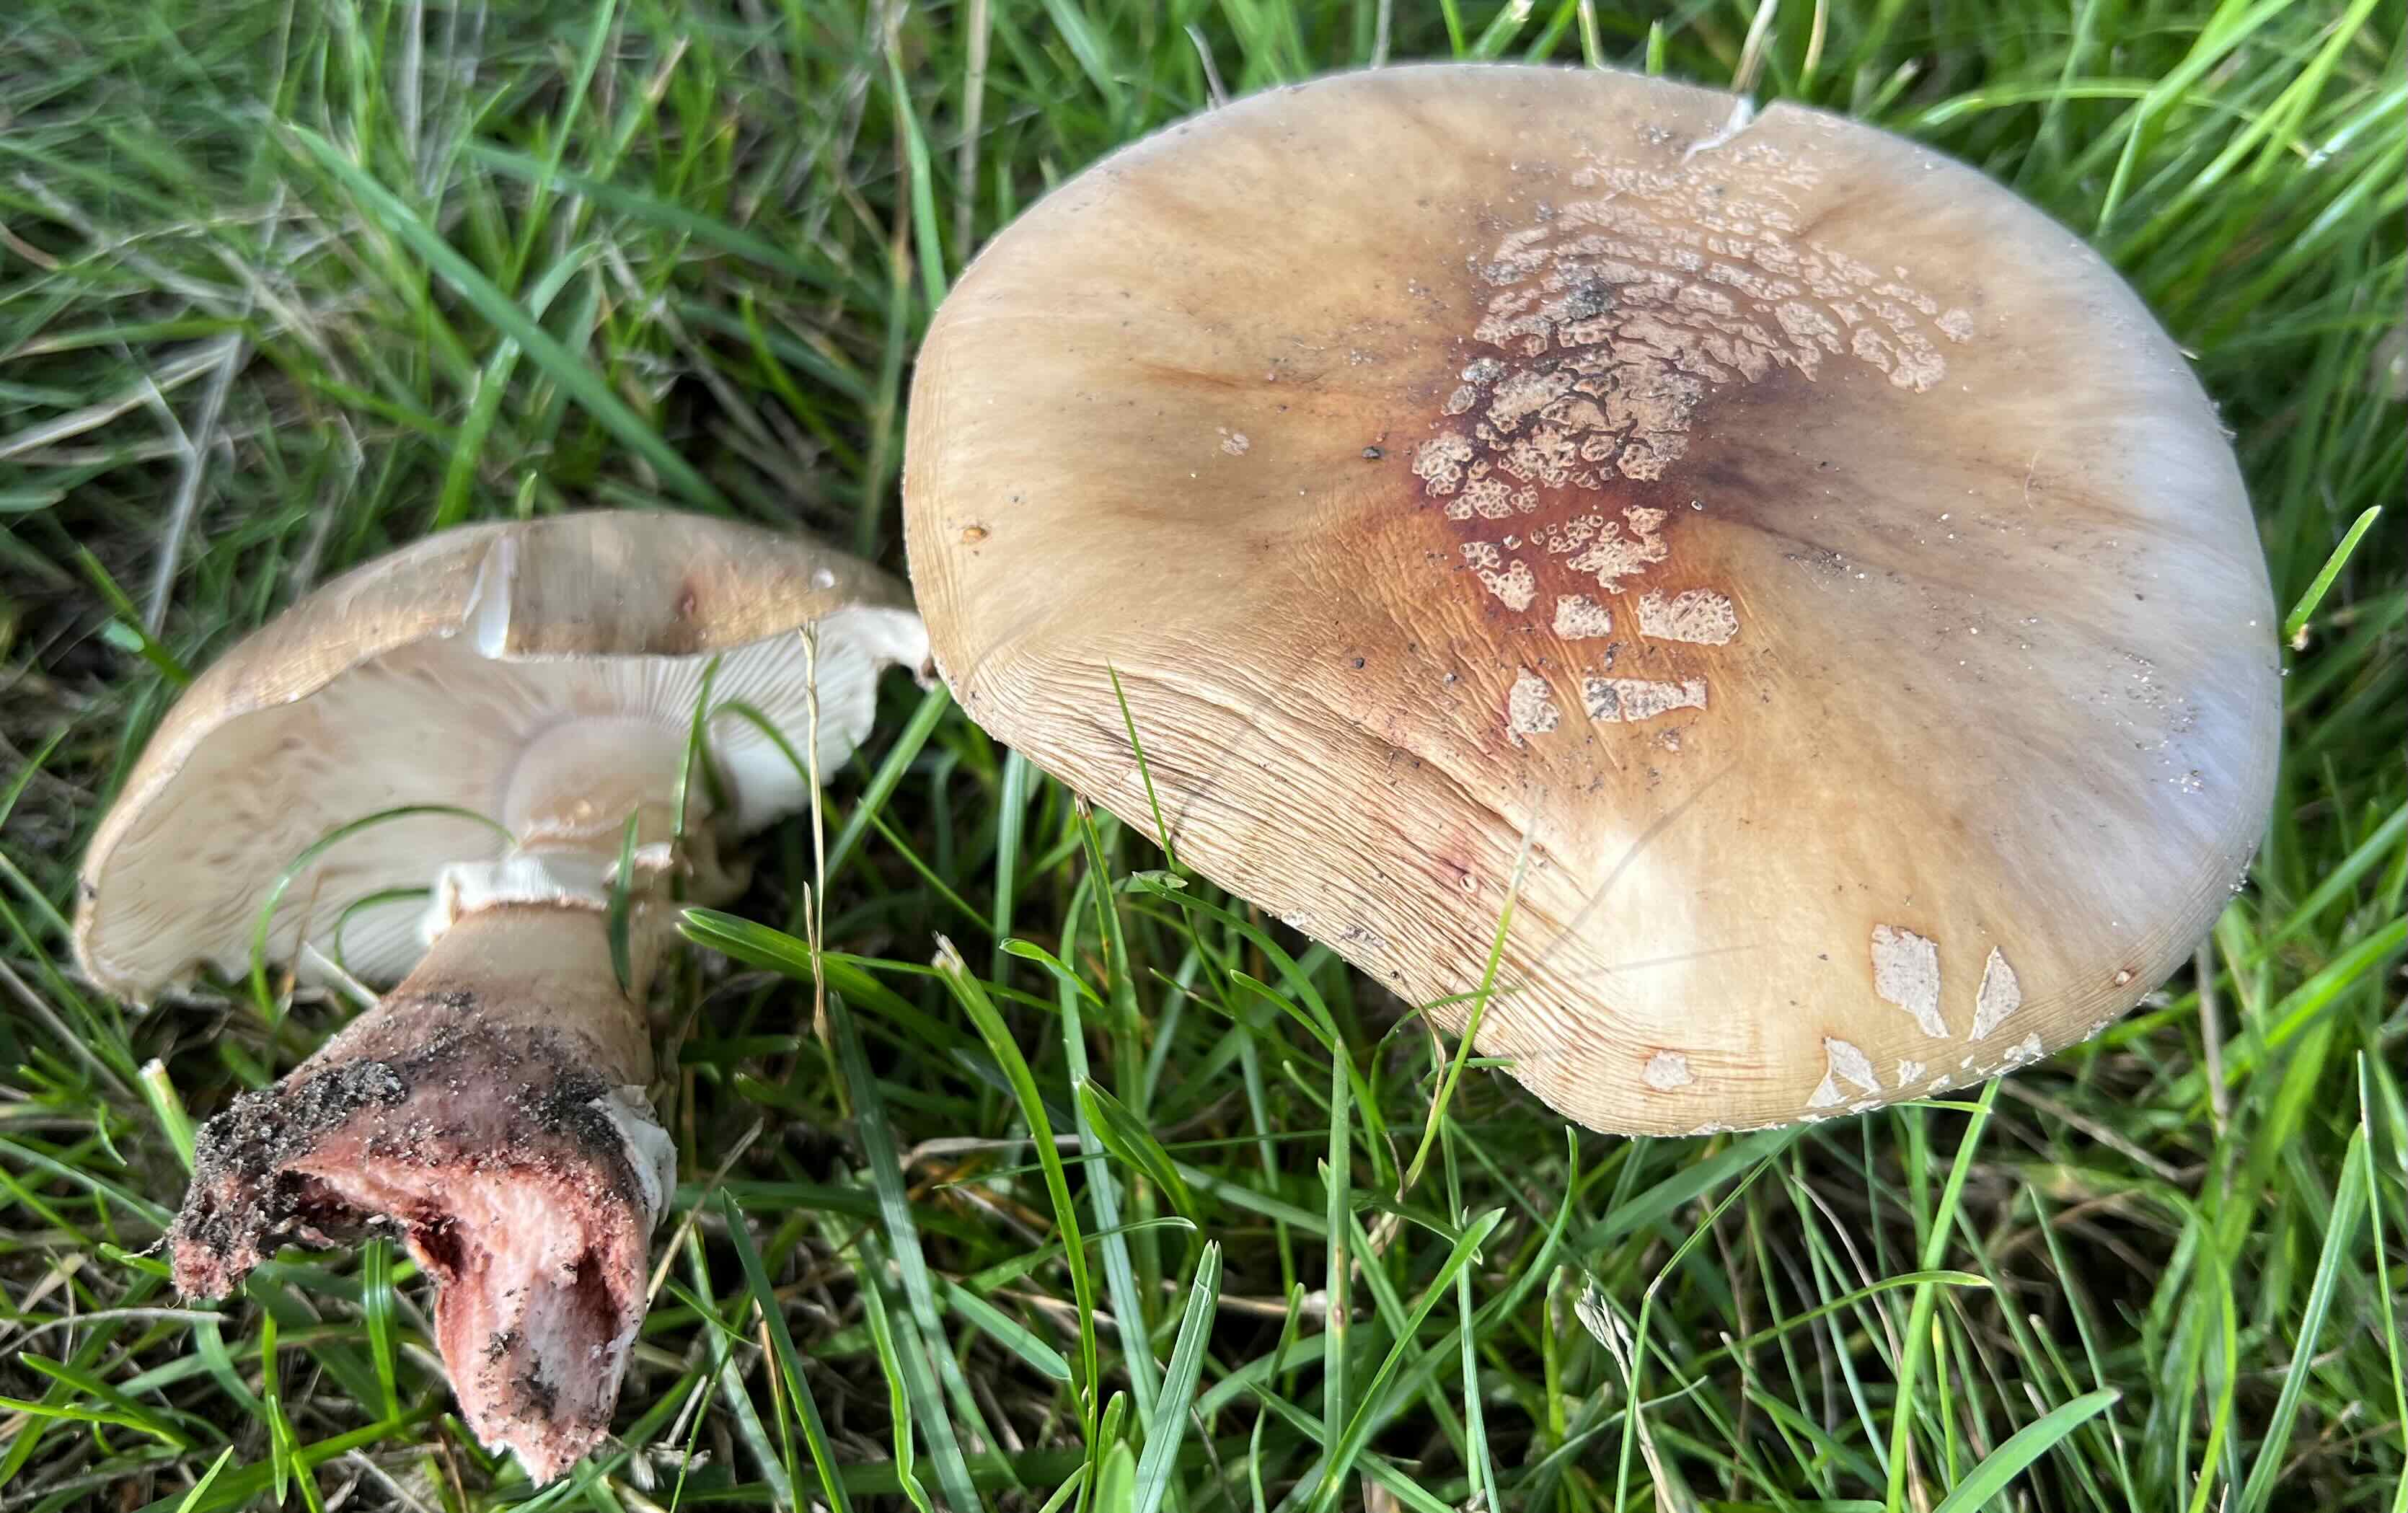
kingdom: Fungi
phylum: Basidiomycota
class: Agaricomycetes
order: Agaricales
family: Amanitaceae
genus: Amanita
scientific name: Amanita rubescens
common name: rødmende fluesvamp
